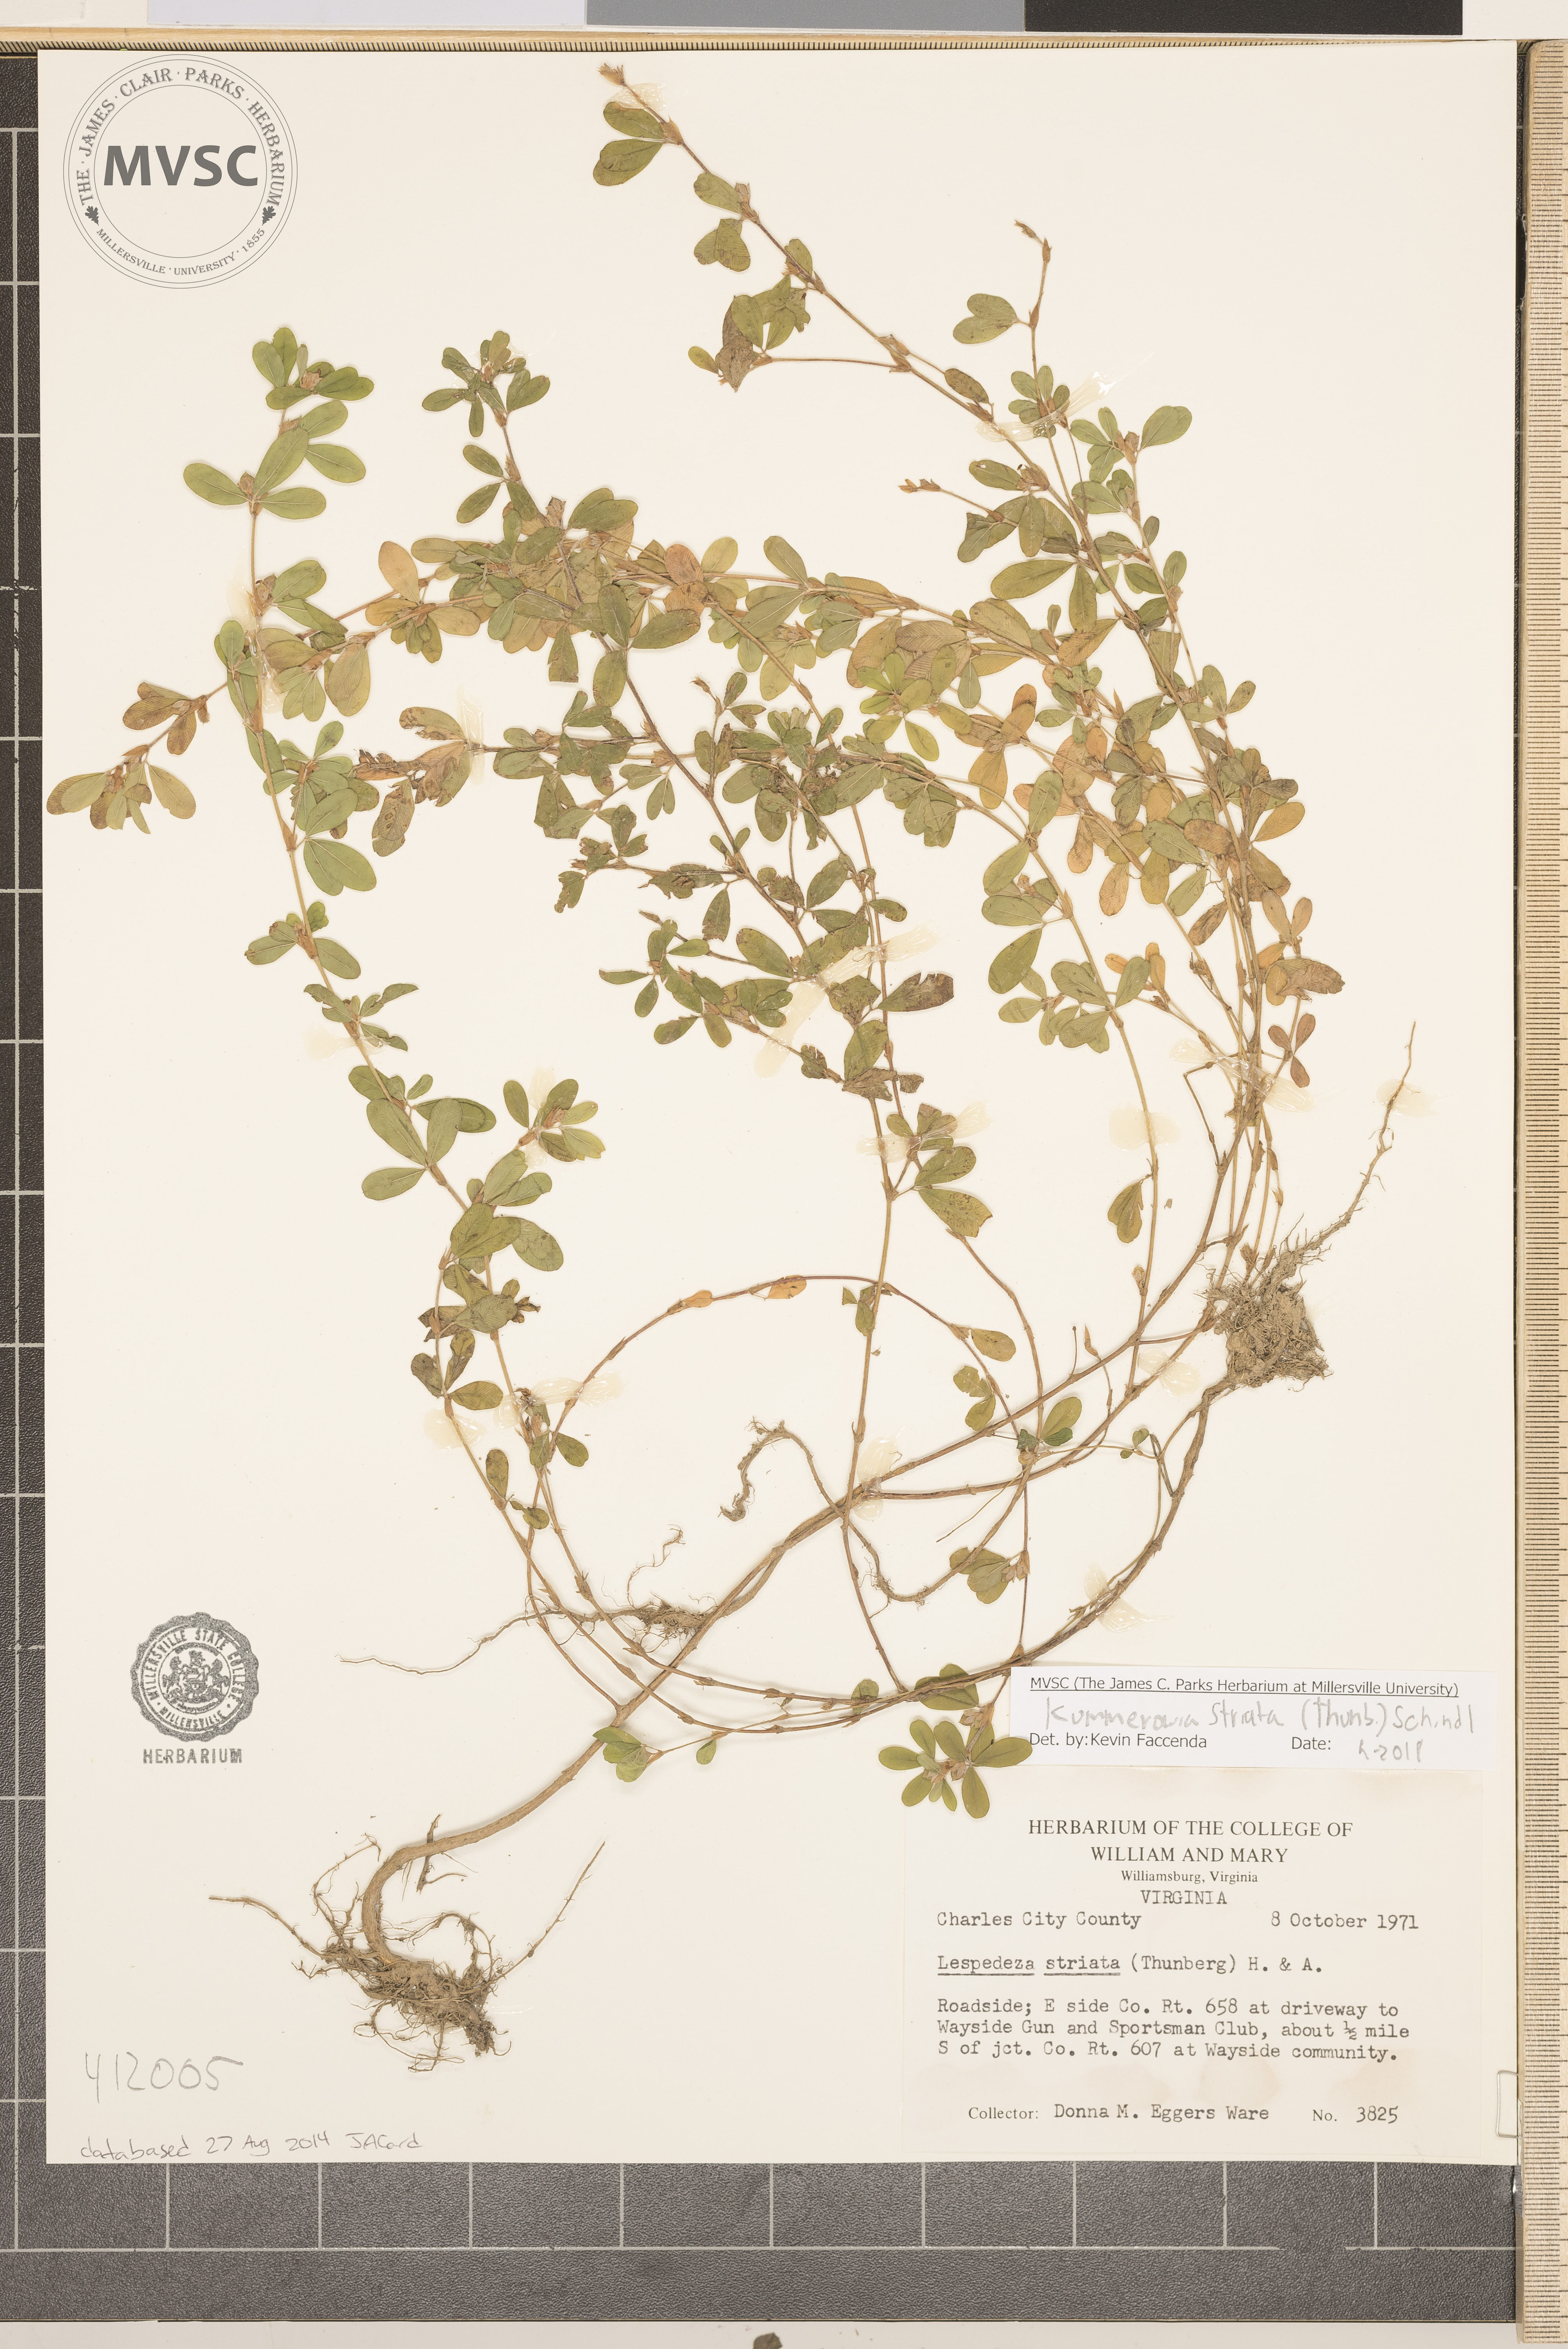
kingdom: Plantae
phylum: Tracheophyta
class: Magnoliopsida
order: Fabales
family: Fabaceae
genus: Kummerowia
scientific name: Kummerowia striata
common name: Japanese clover
